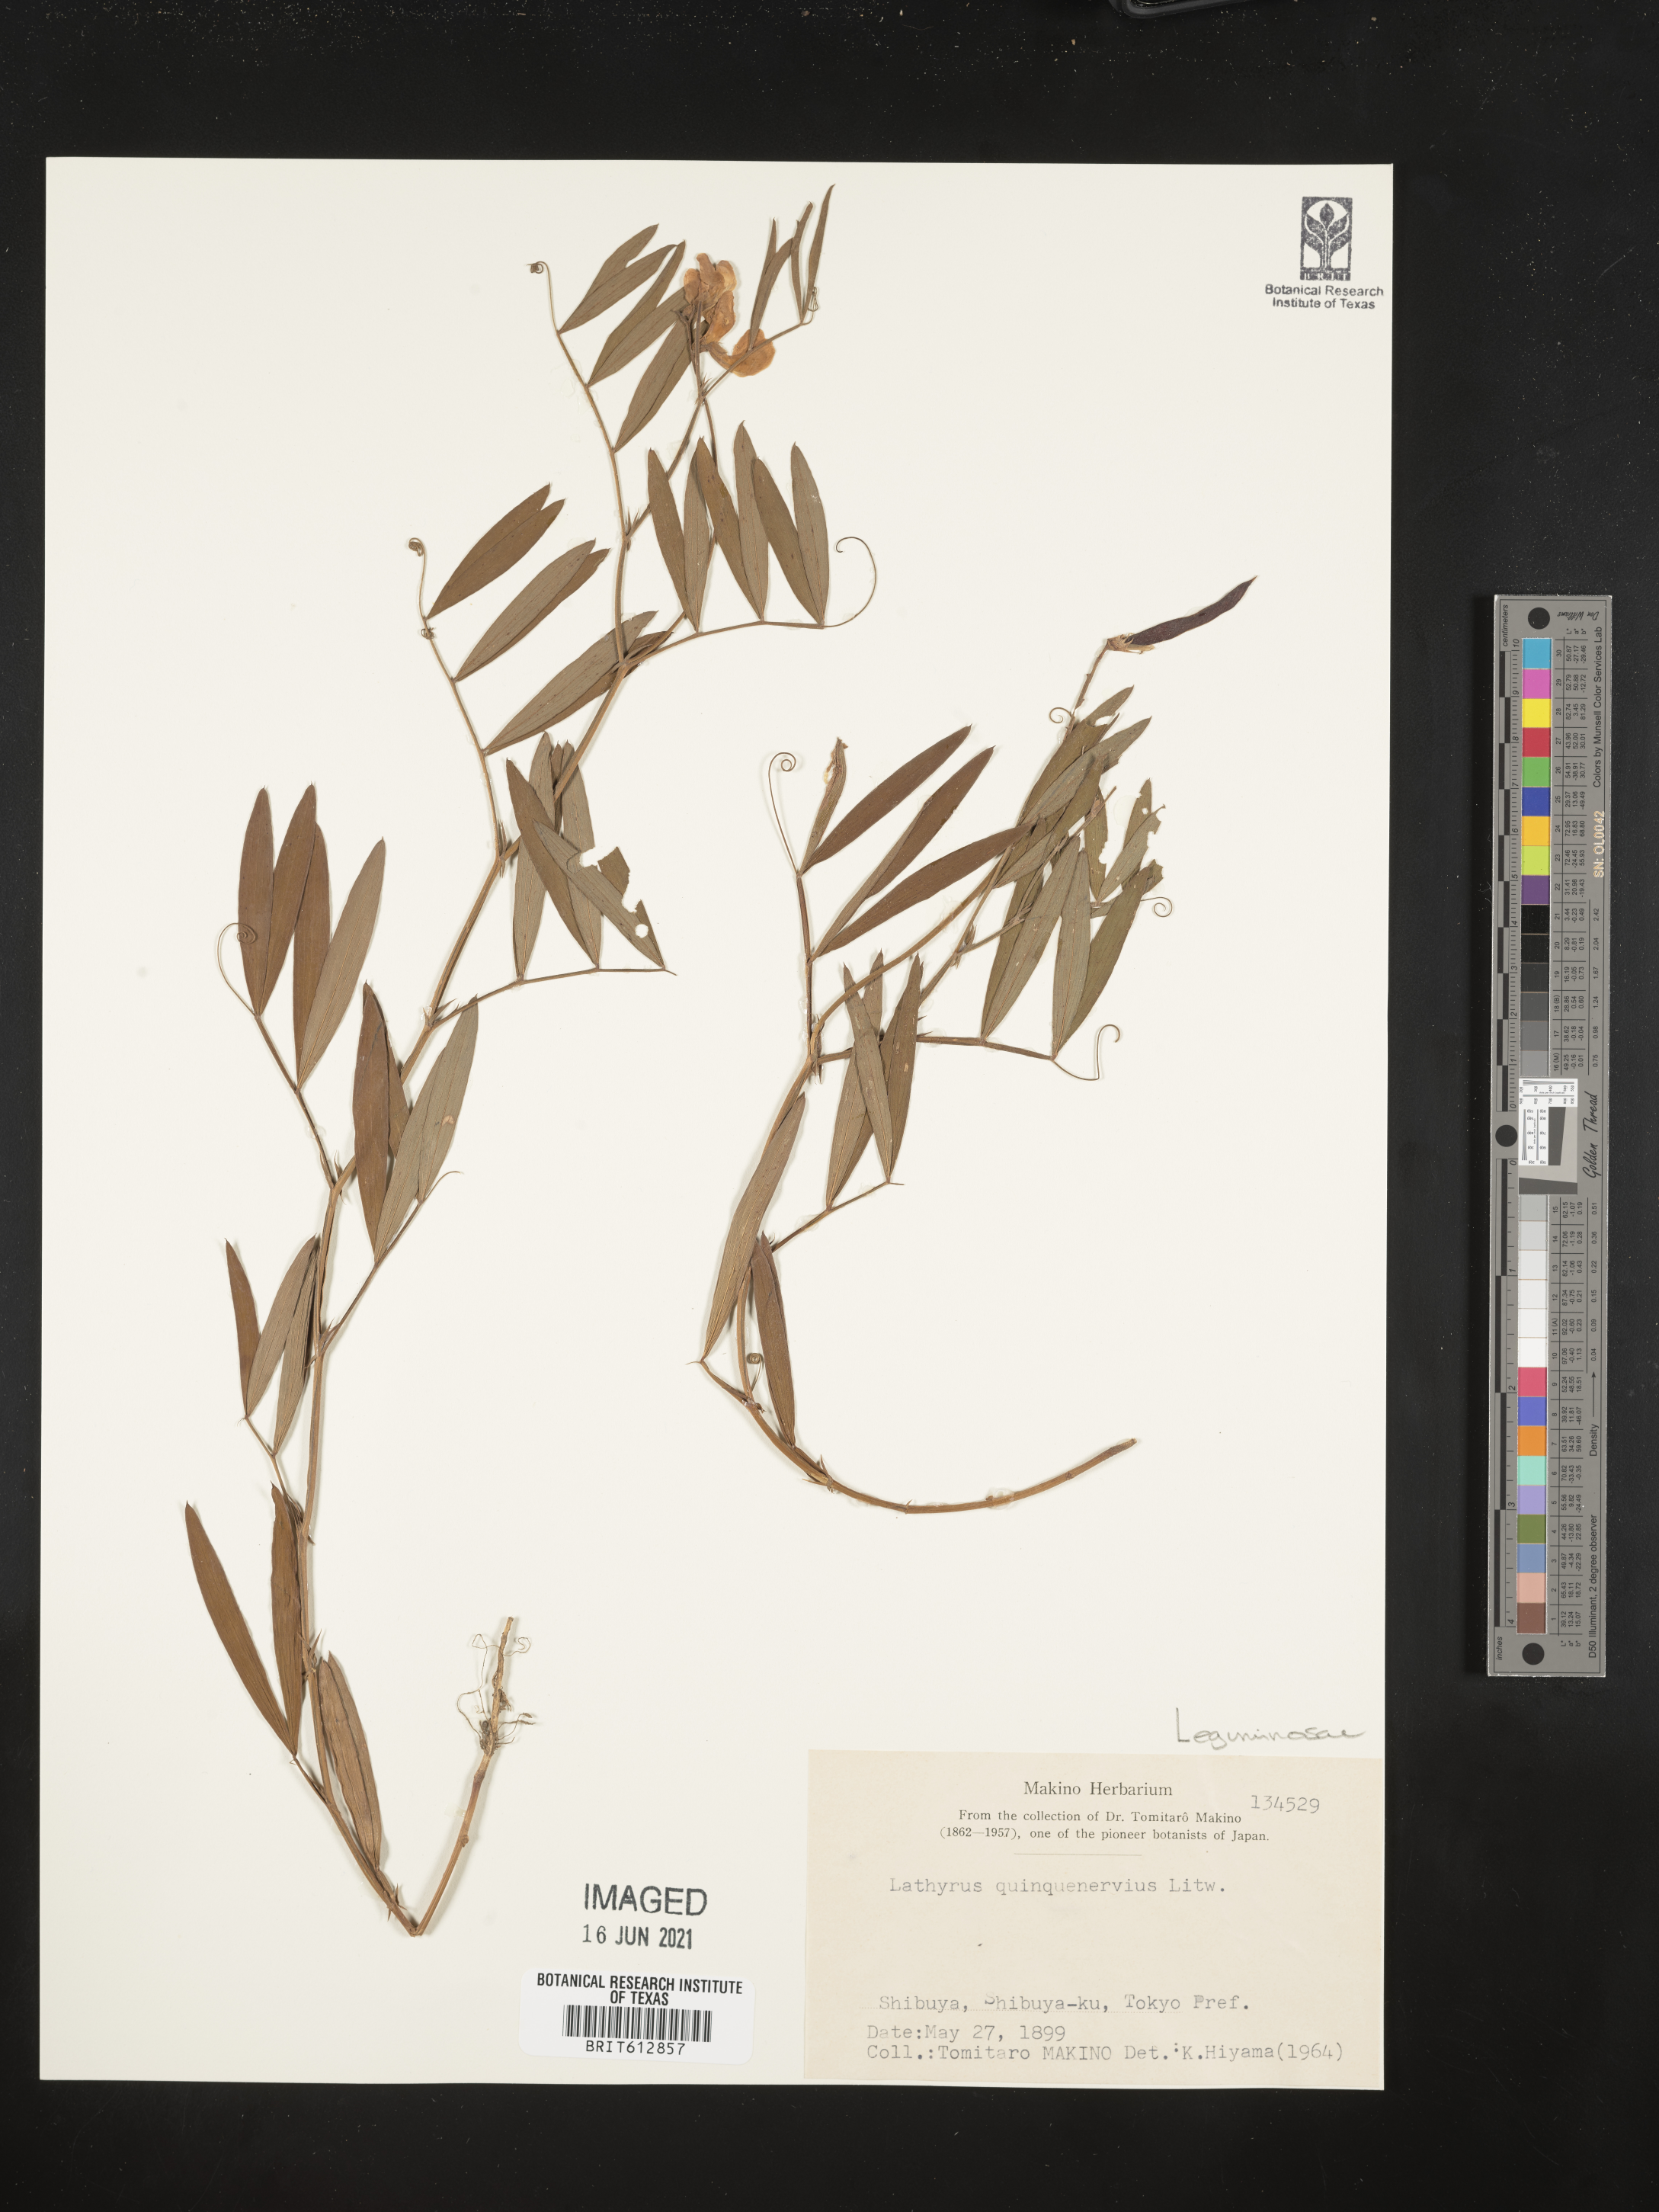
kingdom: Plantae
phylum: Tracheophyta
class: Magnoliopsida
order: Fabales
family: Fabaceae
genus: Lathyrus
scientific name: Lathyrus quinquenervius
